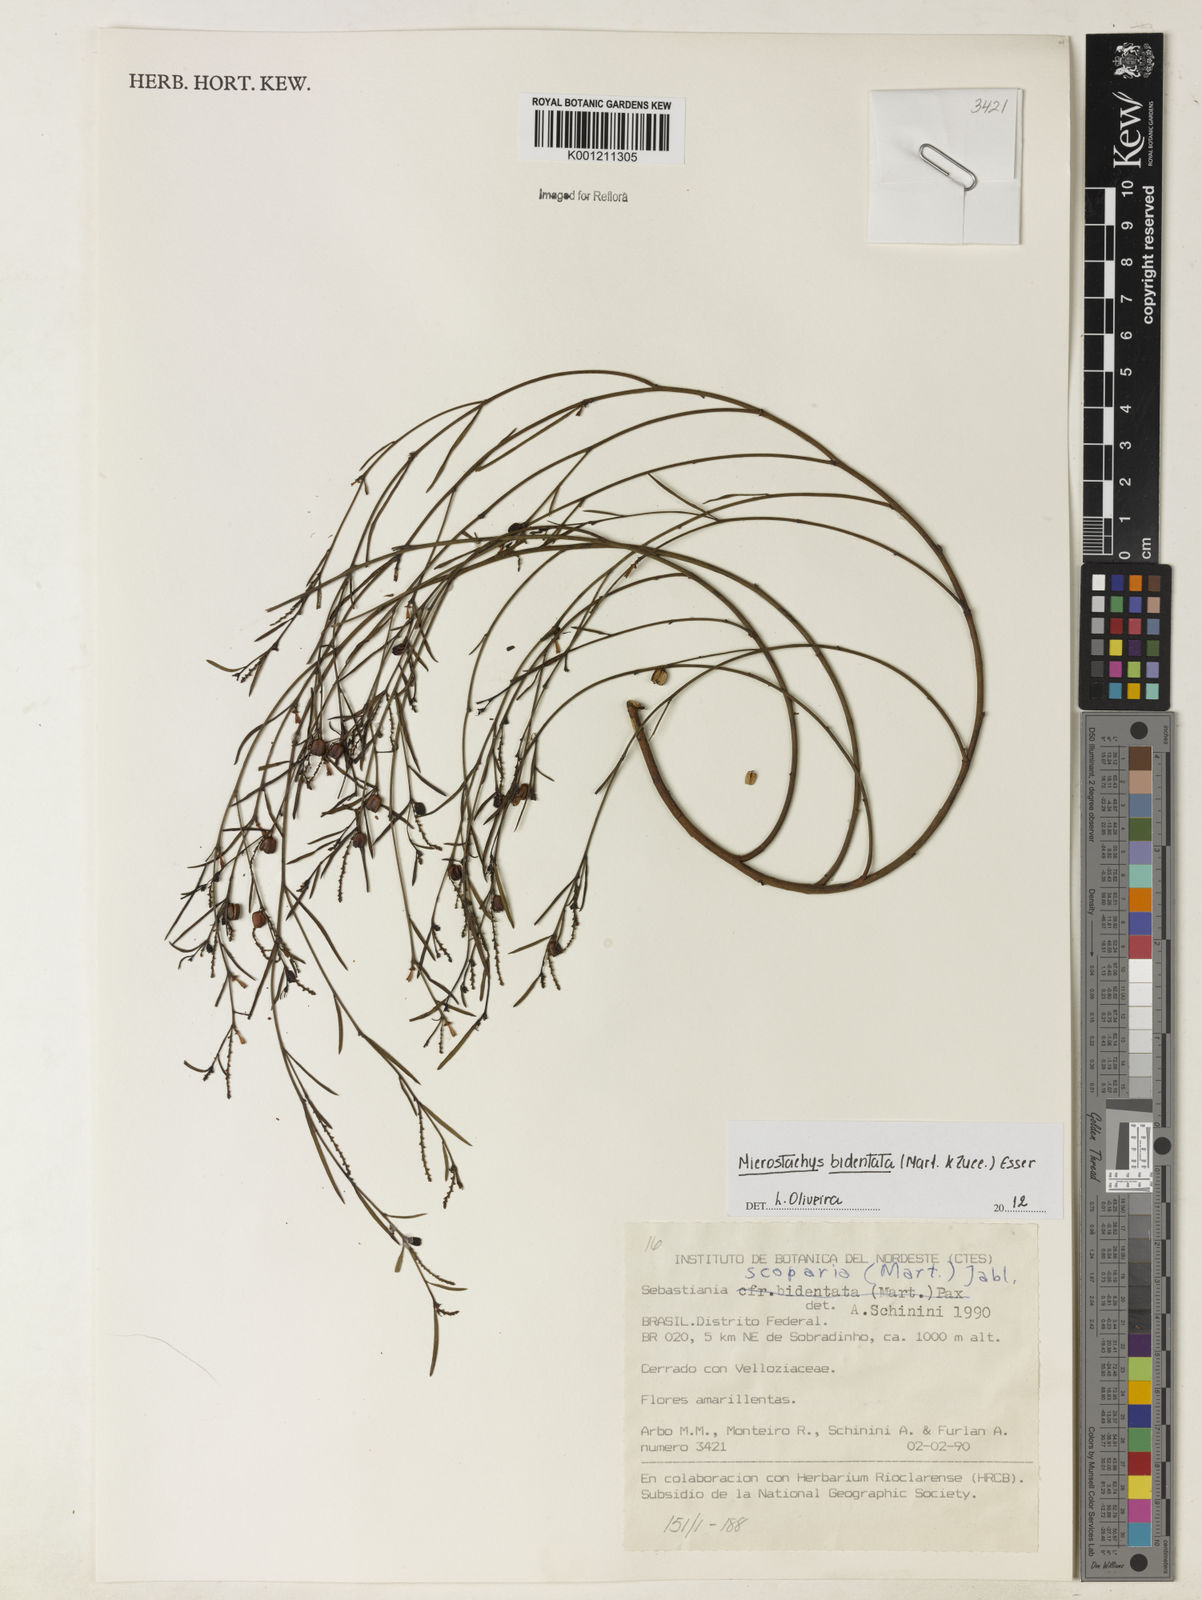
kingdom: Plantae
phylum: Tracheophyta
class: Magnoliopsida
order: Malpighiales
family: Euphorbiaceae
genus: Microstachys
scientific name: Microstachys bidentata
